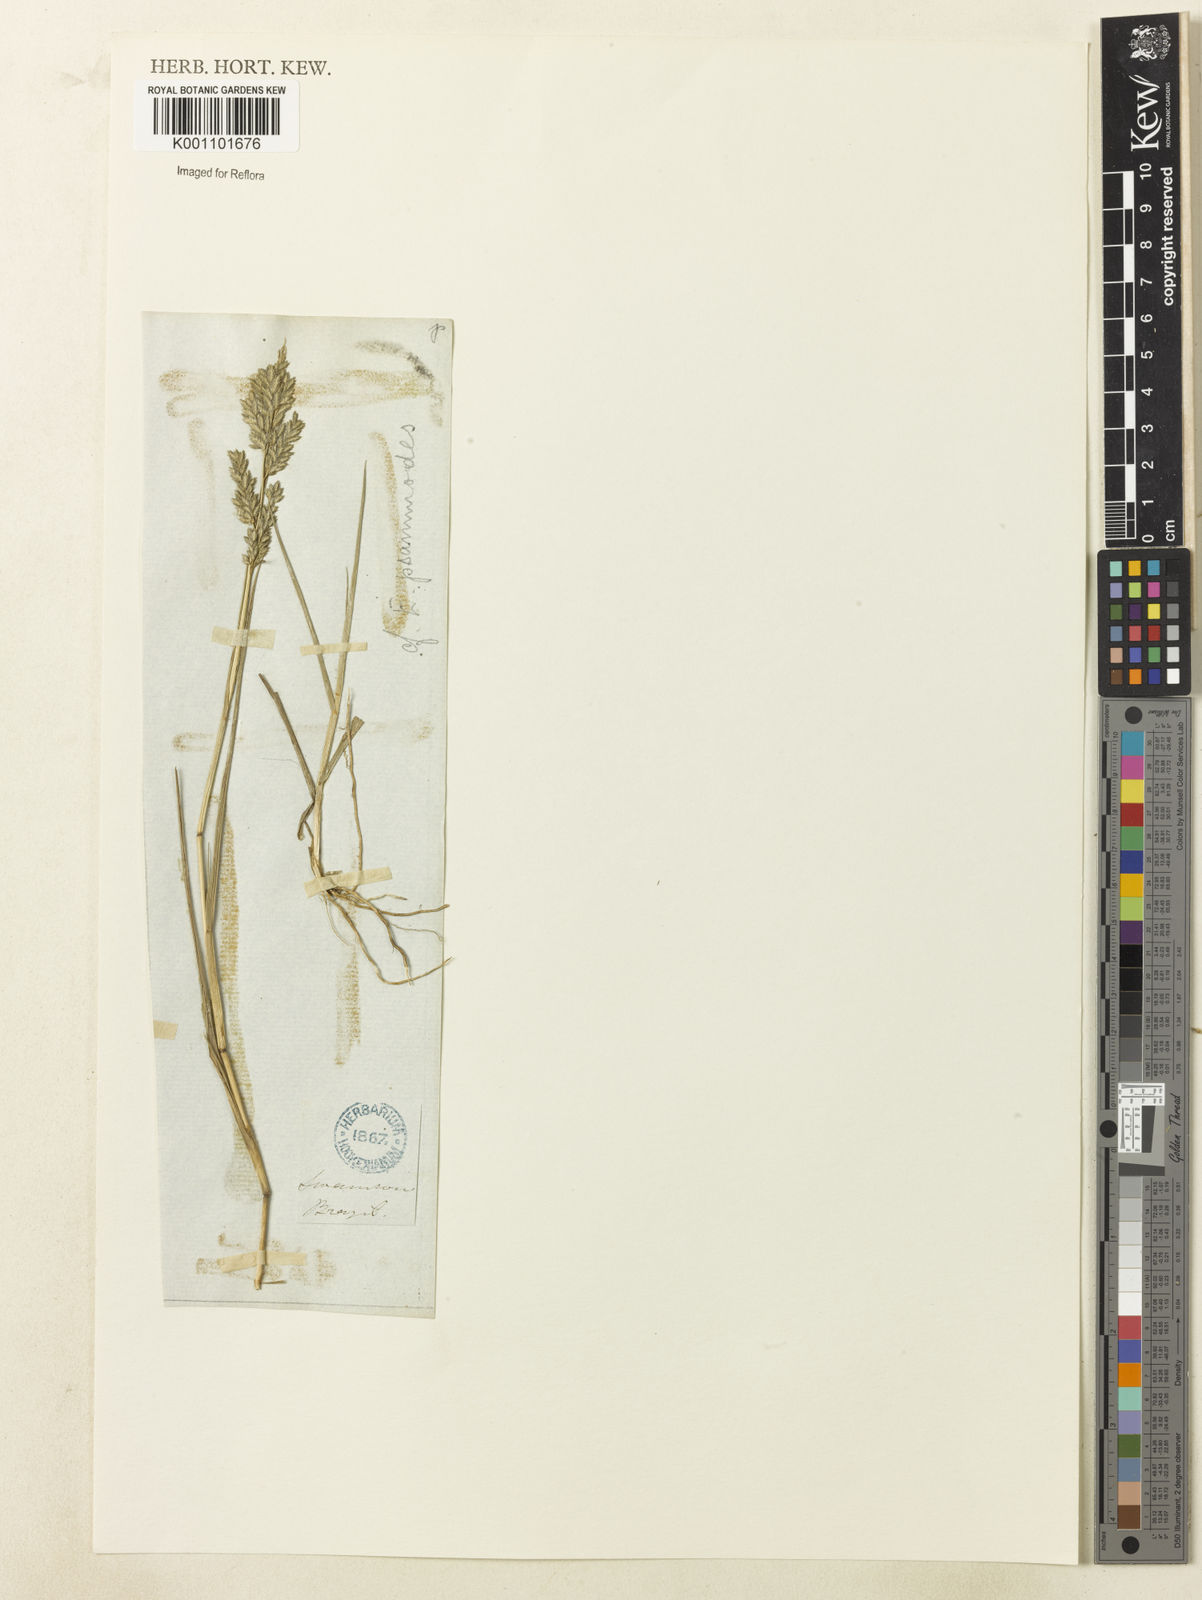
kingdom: Plantae
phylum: Tracheophyta
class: Liliopsida
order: Poales
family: Poaceae
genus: Eragrostis
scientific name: Eragrostis cataclasta
